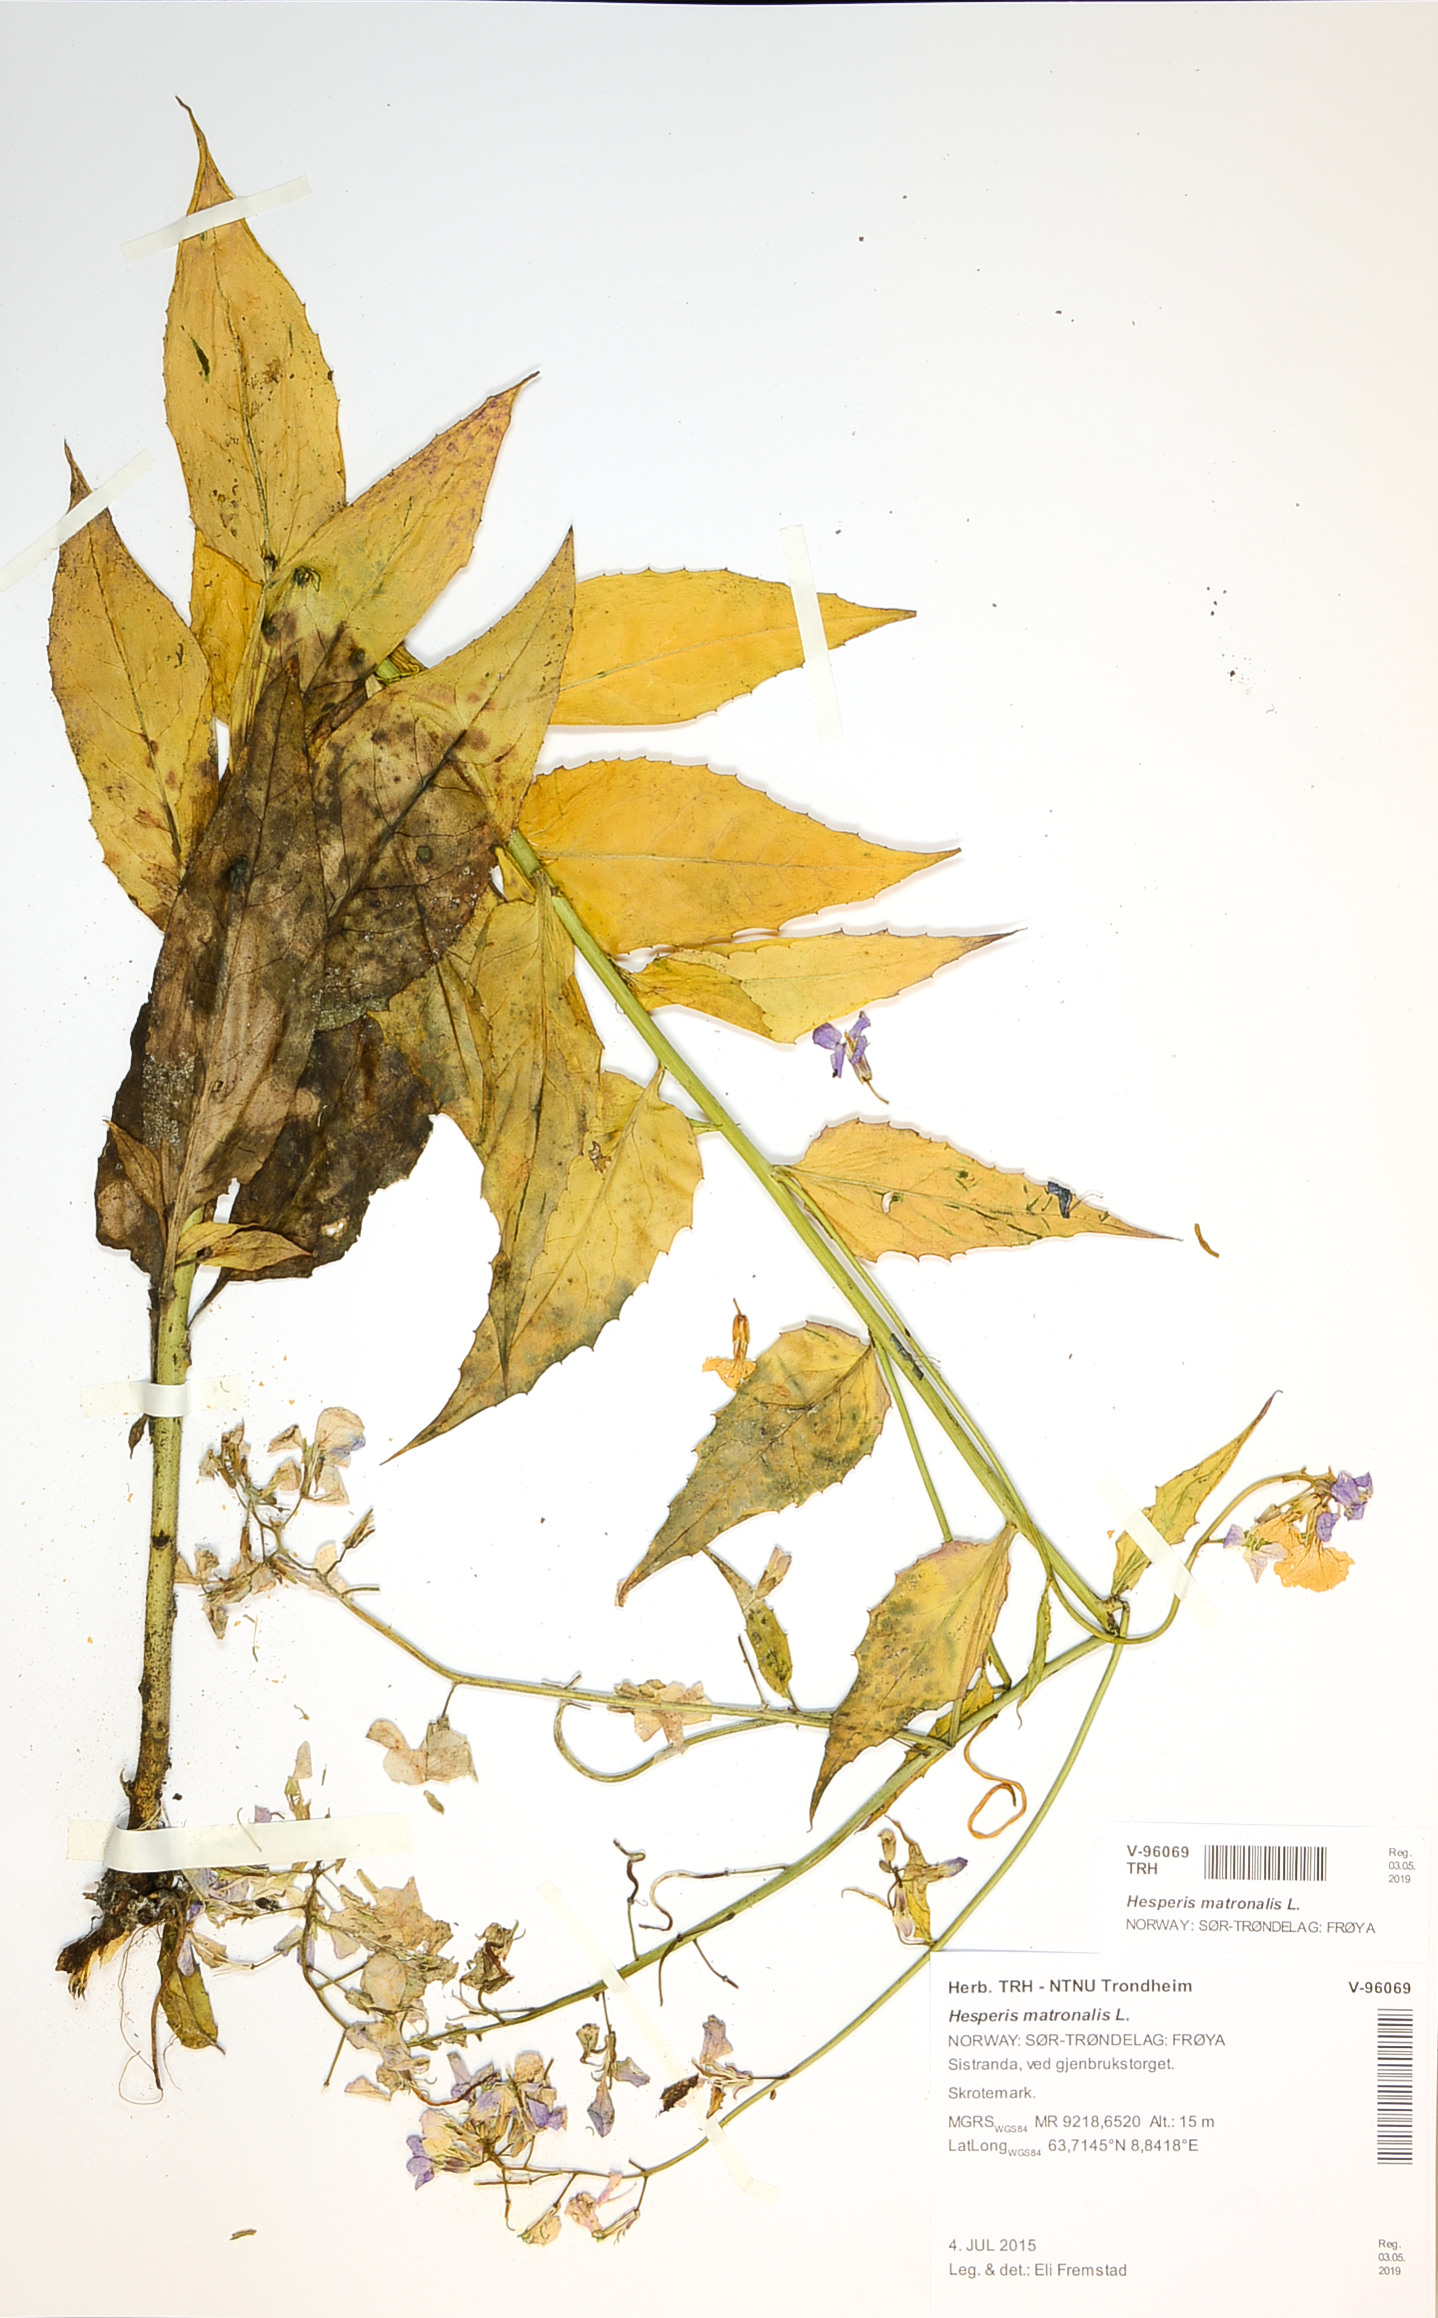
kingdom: Plantae
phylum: Tracheophyta
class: Magnoliopsida
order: Brassicales
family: Brassicaceae
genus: Hesperis
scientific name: Hesperis matronalis
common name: Dame's-violet
